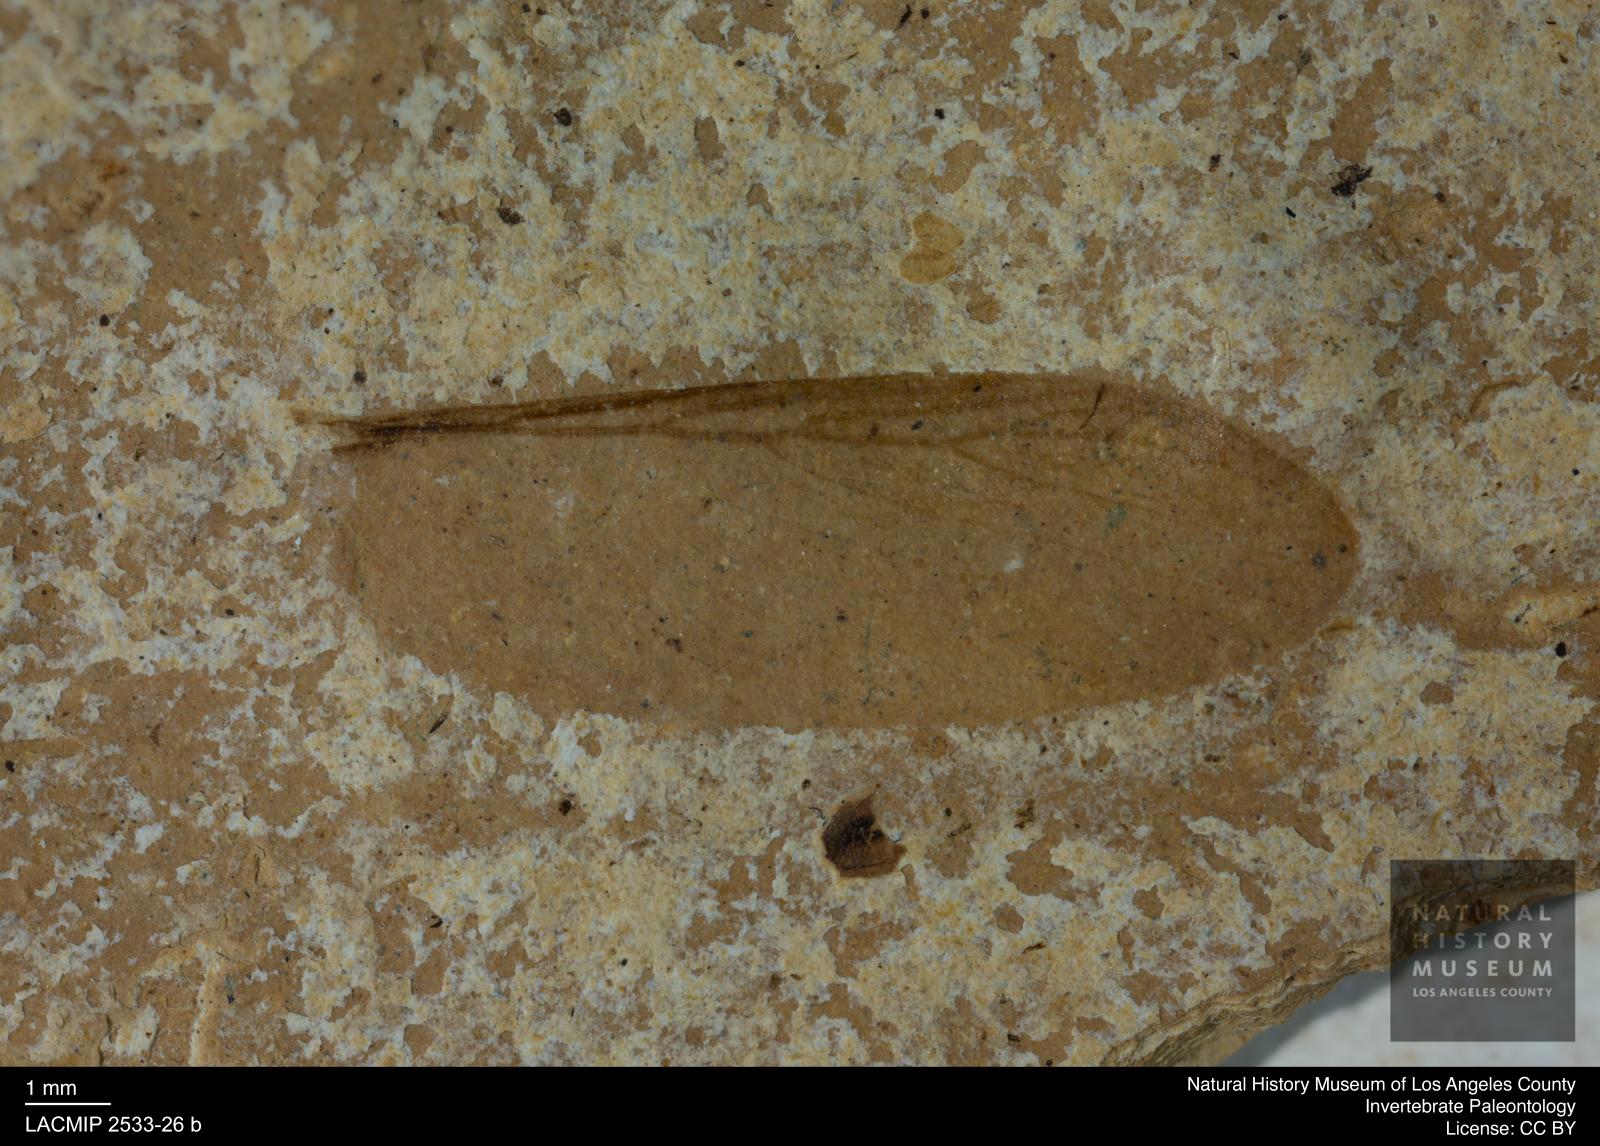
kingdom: Animalia
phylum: Arthropoda
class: Insecta
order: Blattodea
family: Hodotermitidae
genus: Ulmeriella
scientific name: Ulmeriella bauckhorni
